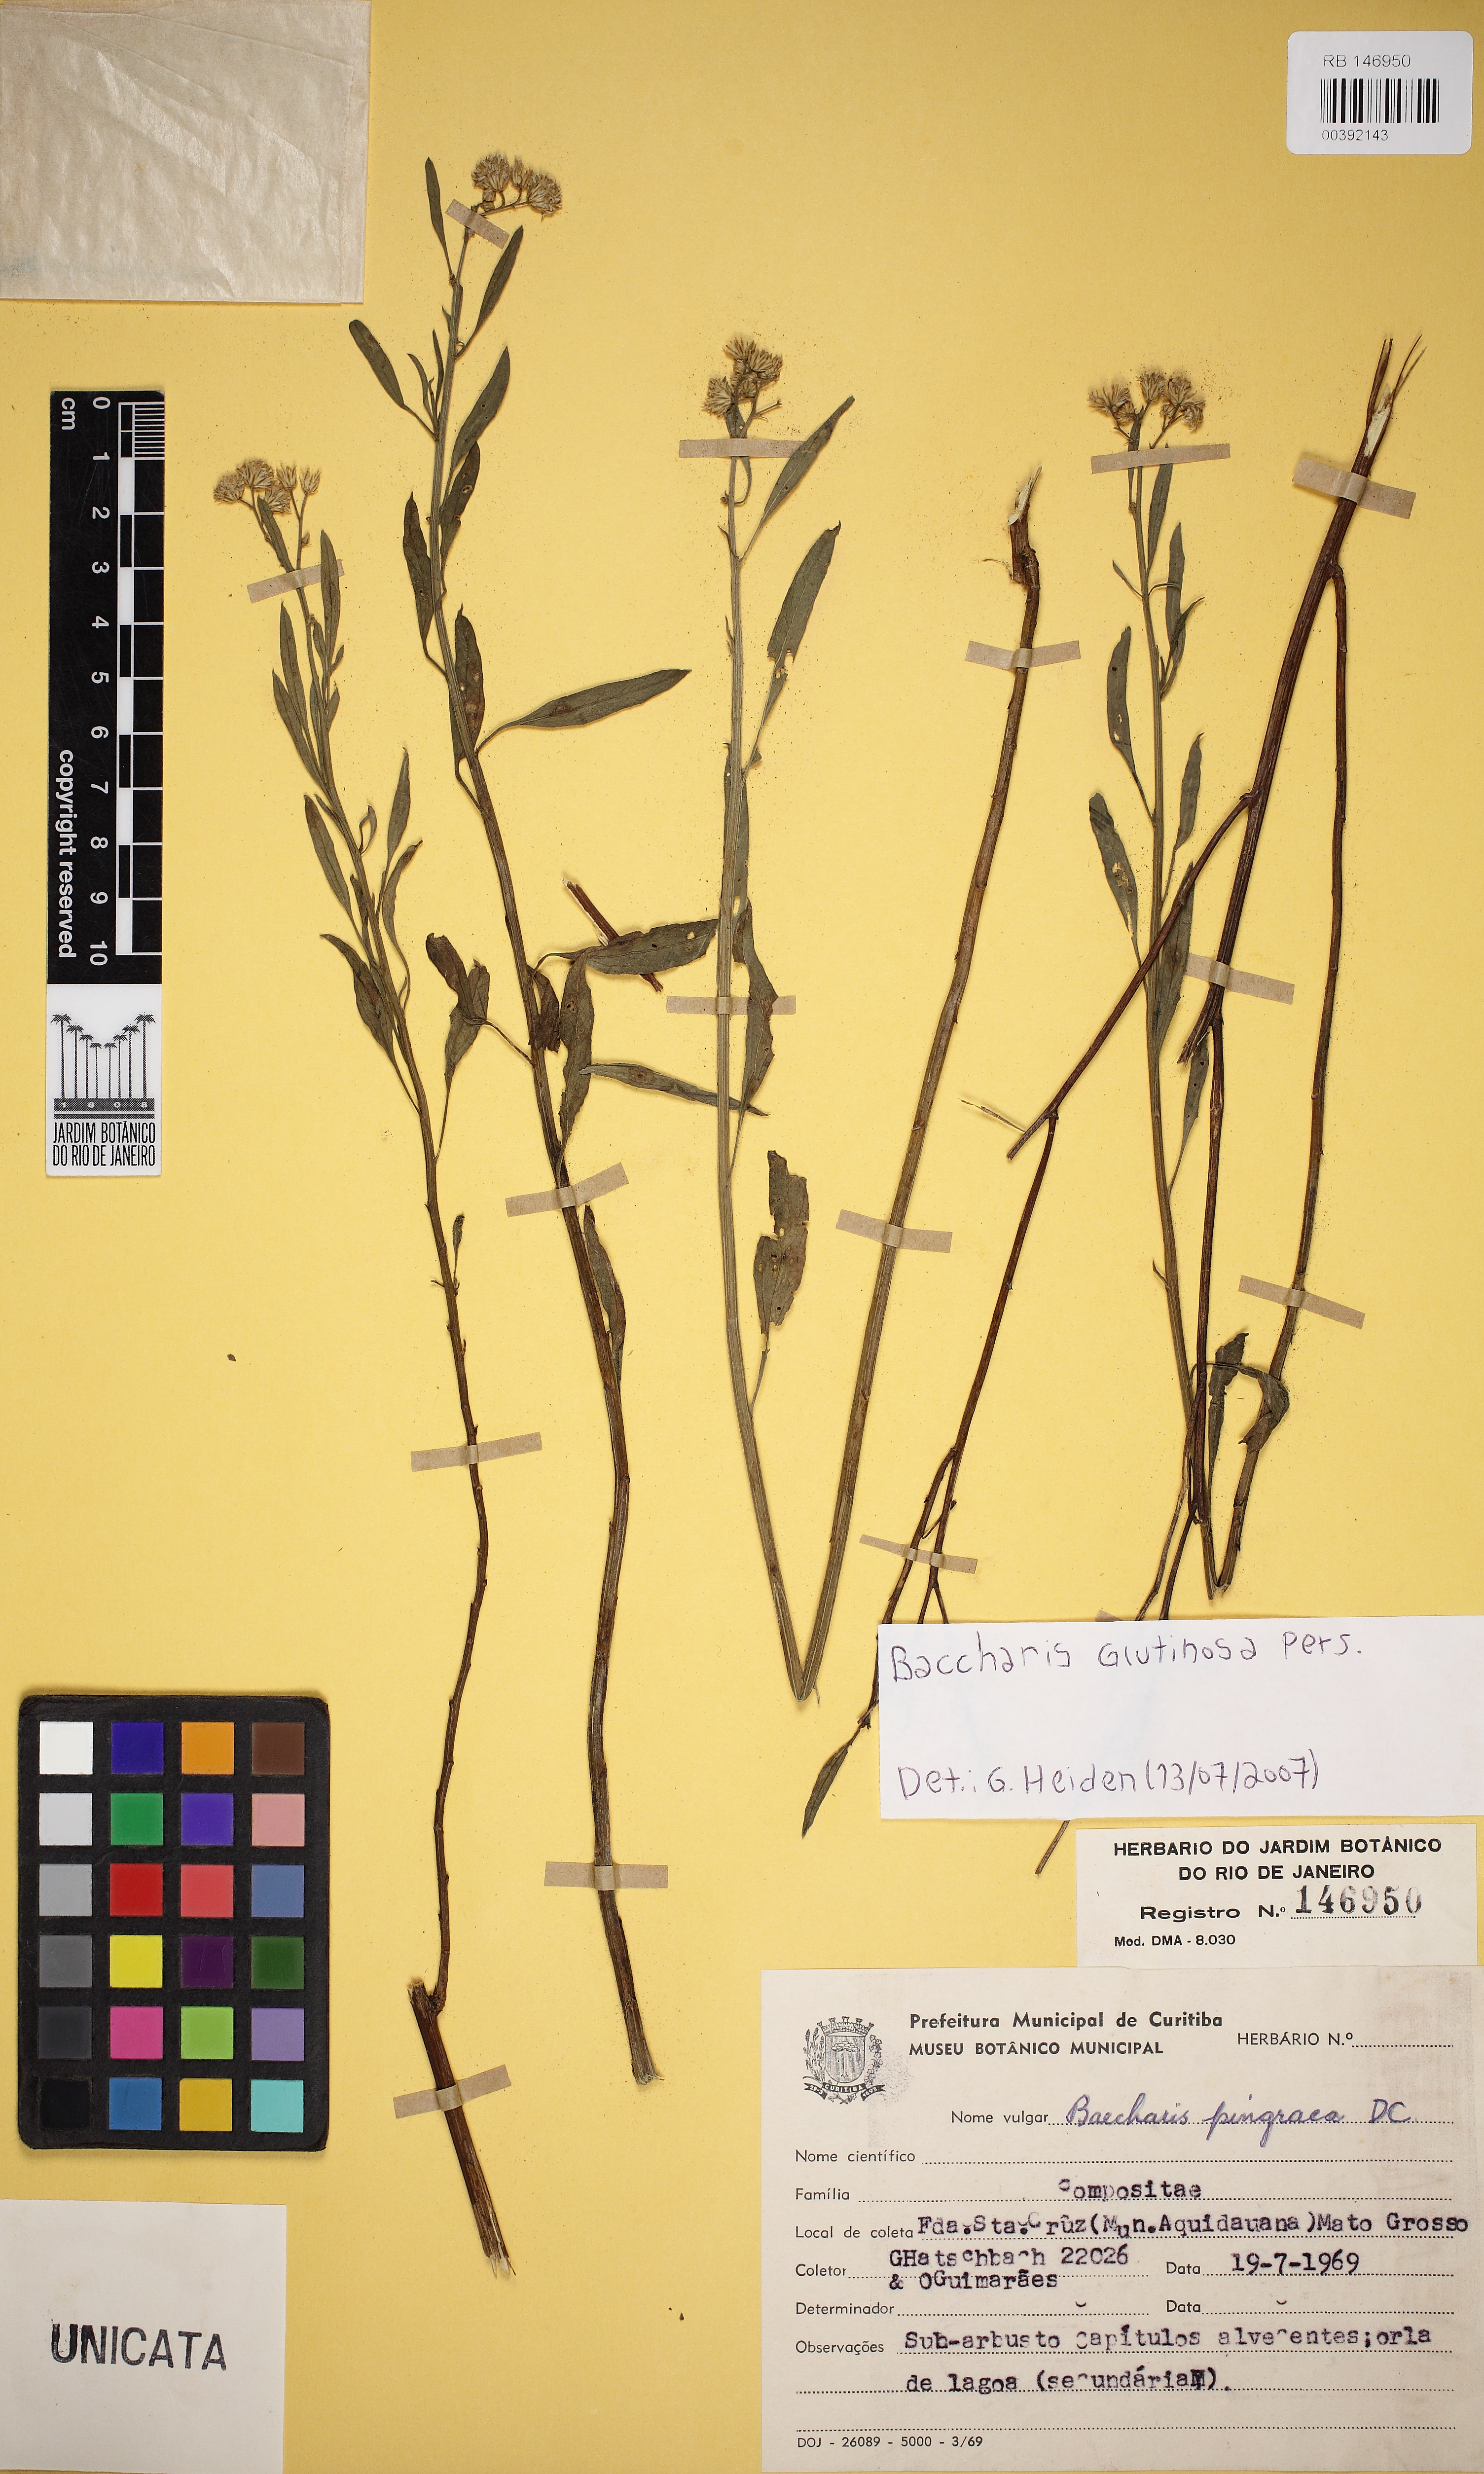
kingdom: Plantae
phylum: Tracheophyta
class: Magnoliopsida
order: Asterales
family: Asteraceae
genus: Baccharis
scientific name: Baccharis glutinosa
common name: Saltmarsh baccharis
